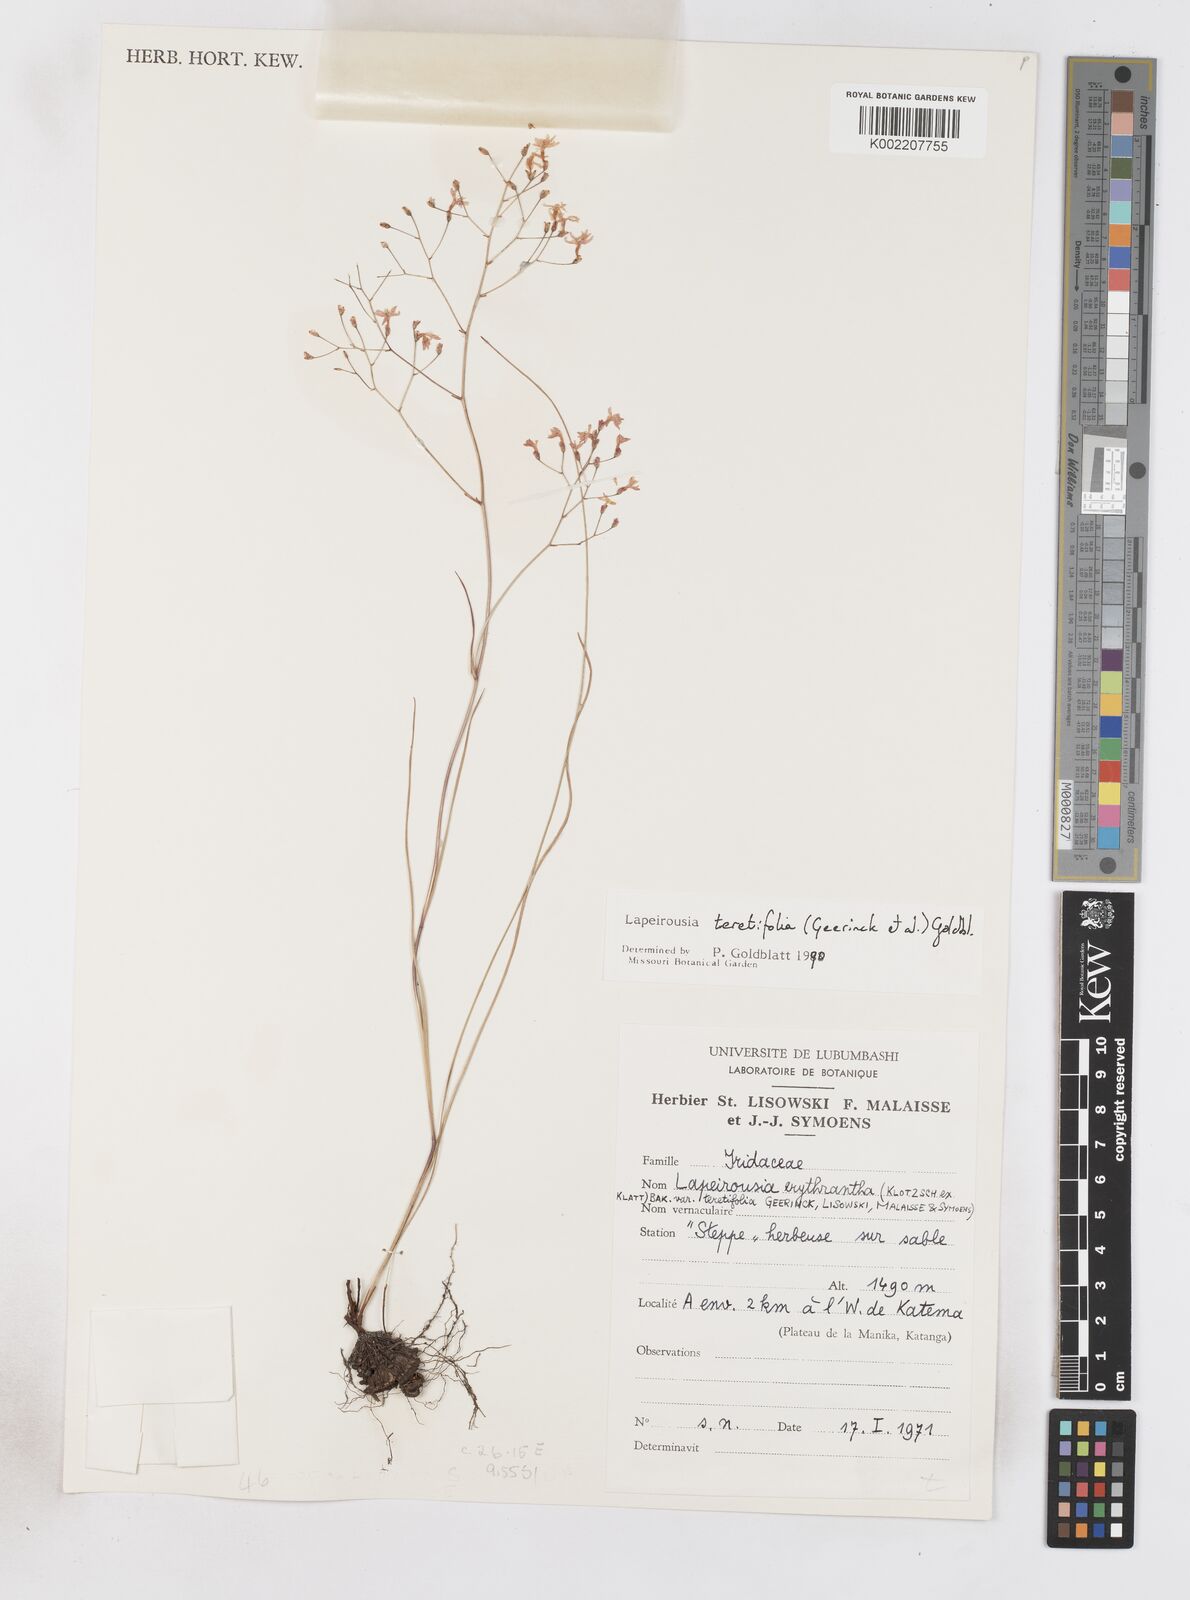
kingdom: Plantae
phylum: Tracheophyta
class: Liliopsida
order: Asparagales
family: Iridaceae
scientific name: Iridaceae
